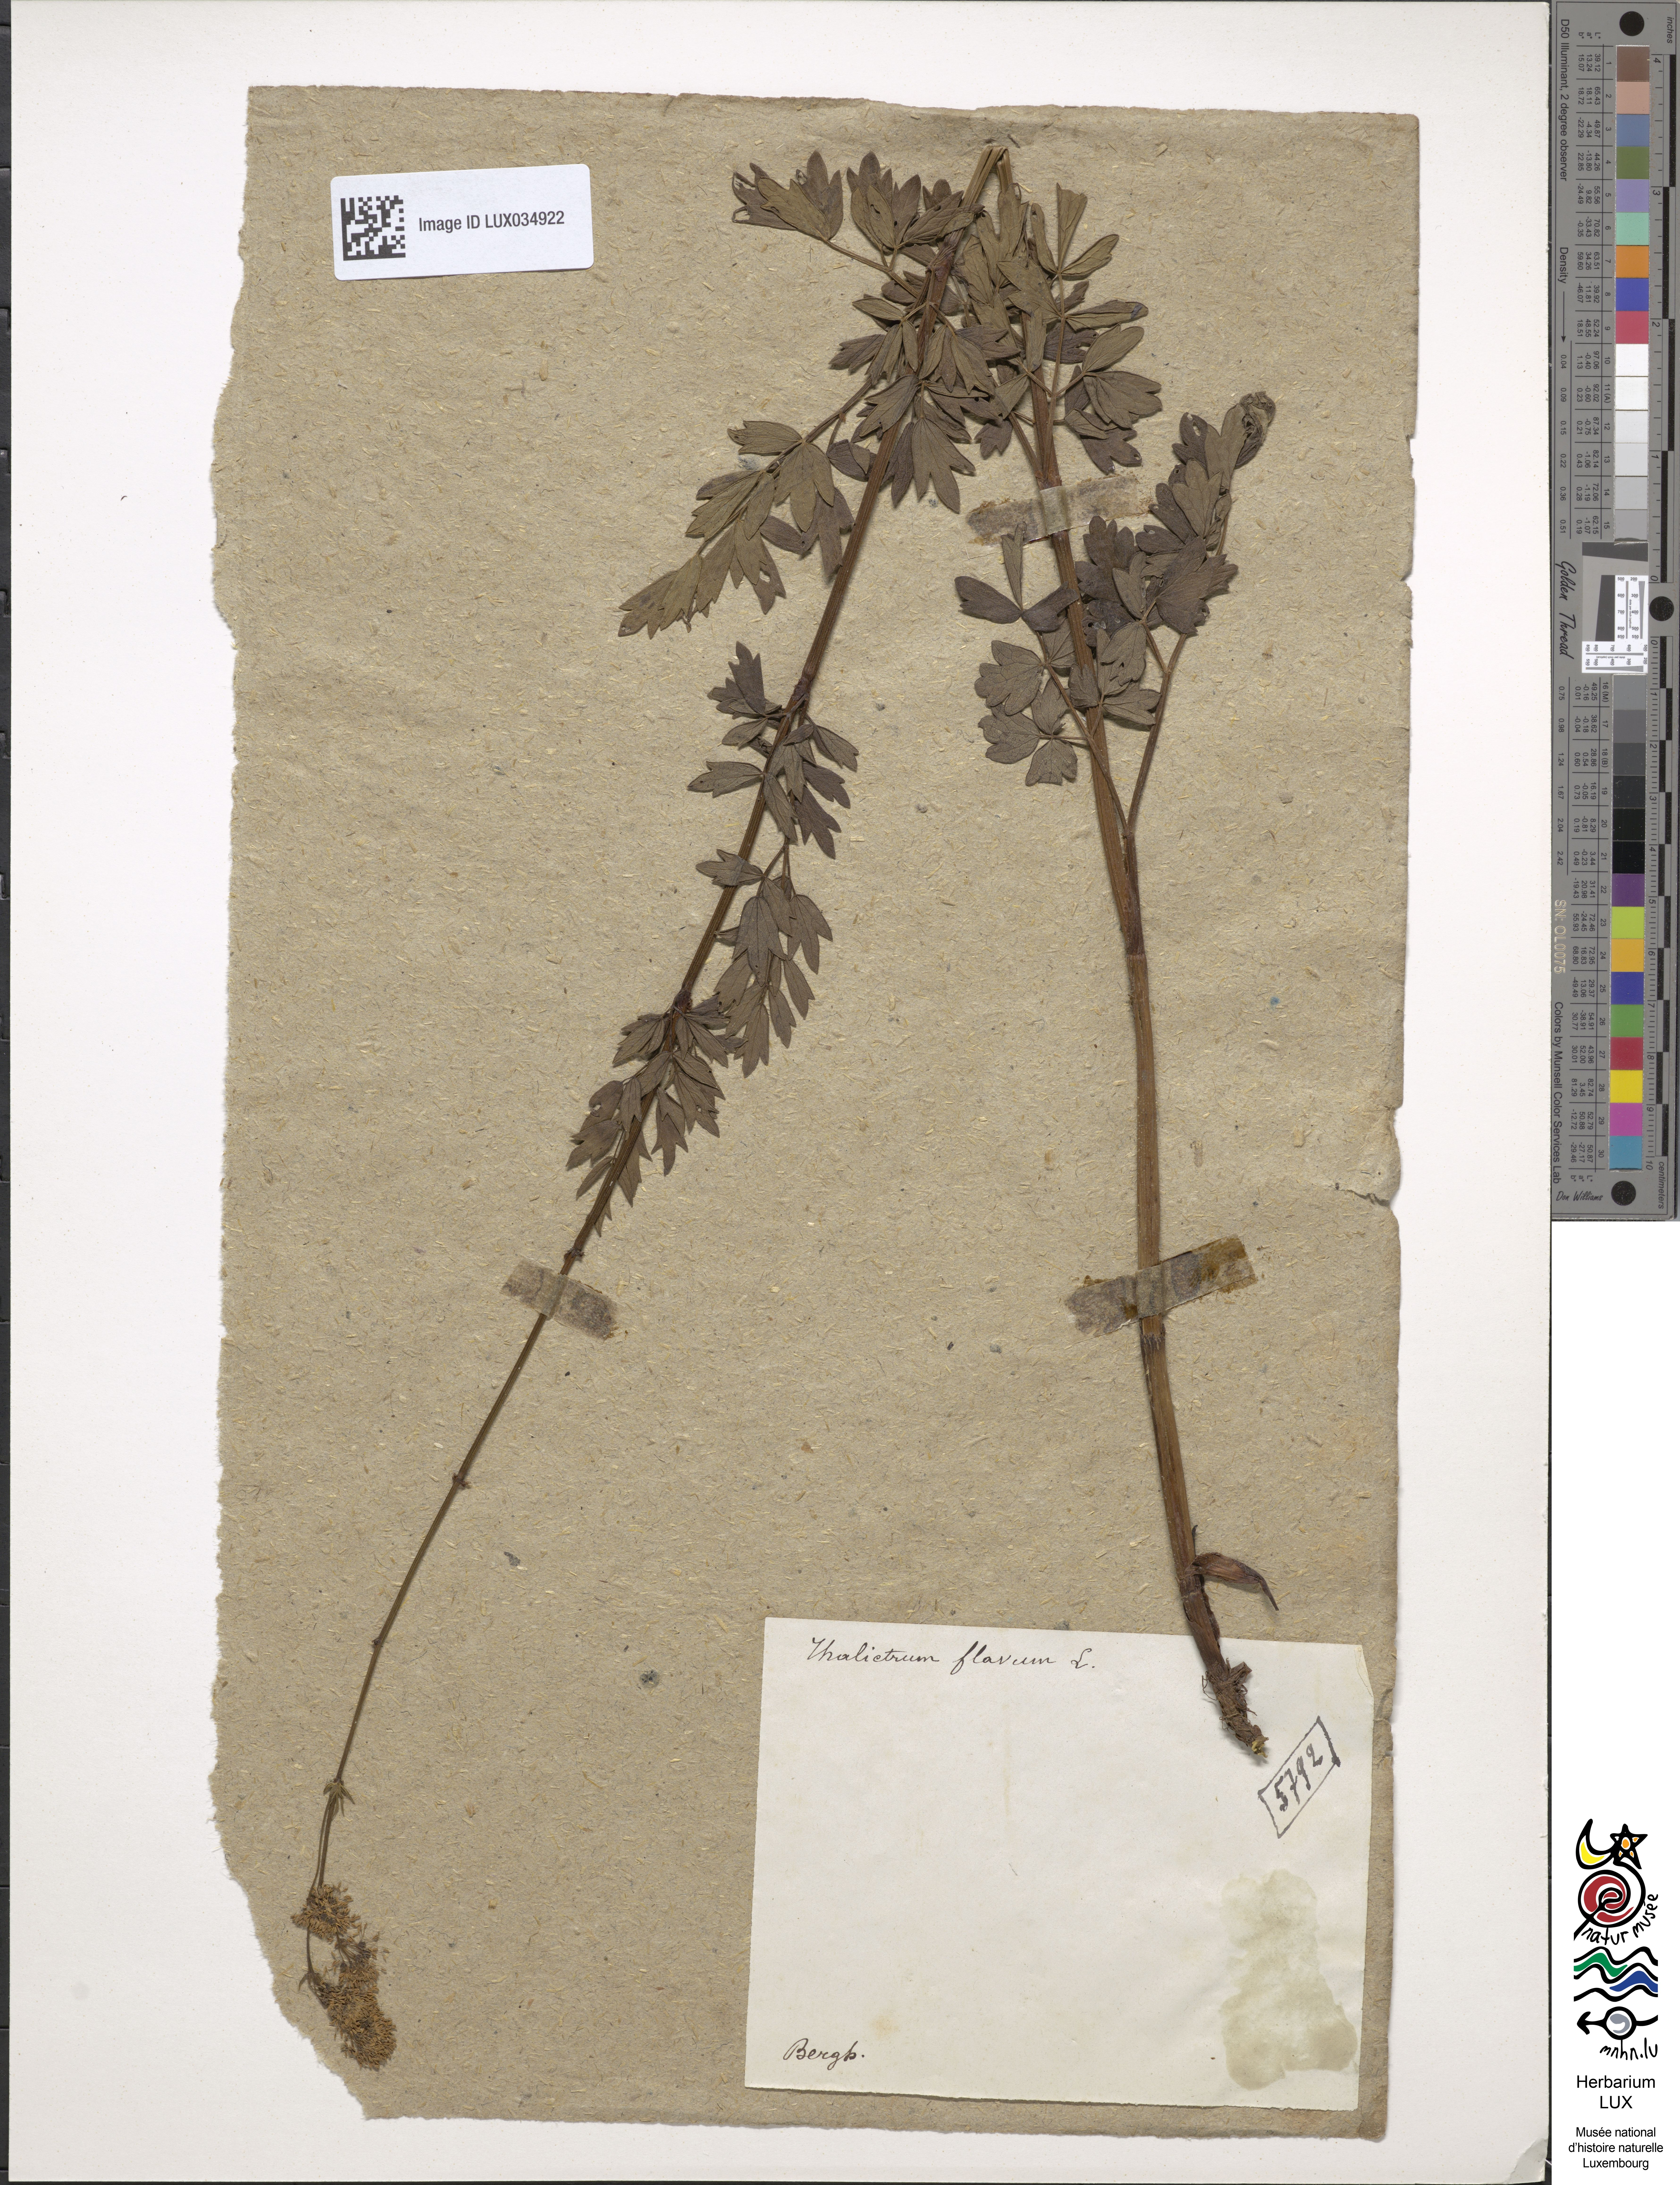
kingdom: Plantae
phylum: Tracheophyta
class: Magnoliopsida
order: Ranunculales
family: Ranunculaceae
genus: Thalictrum
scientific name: Thalictrum flavum
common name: Common meadow-rue
